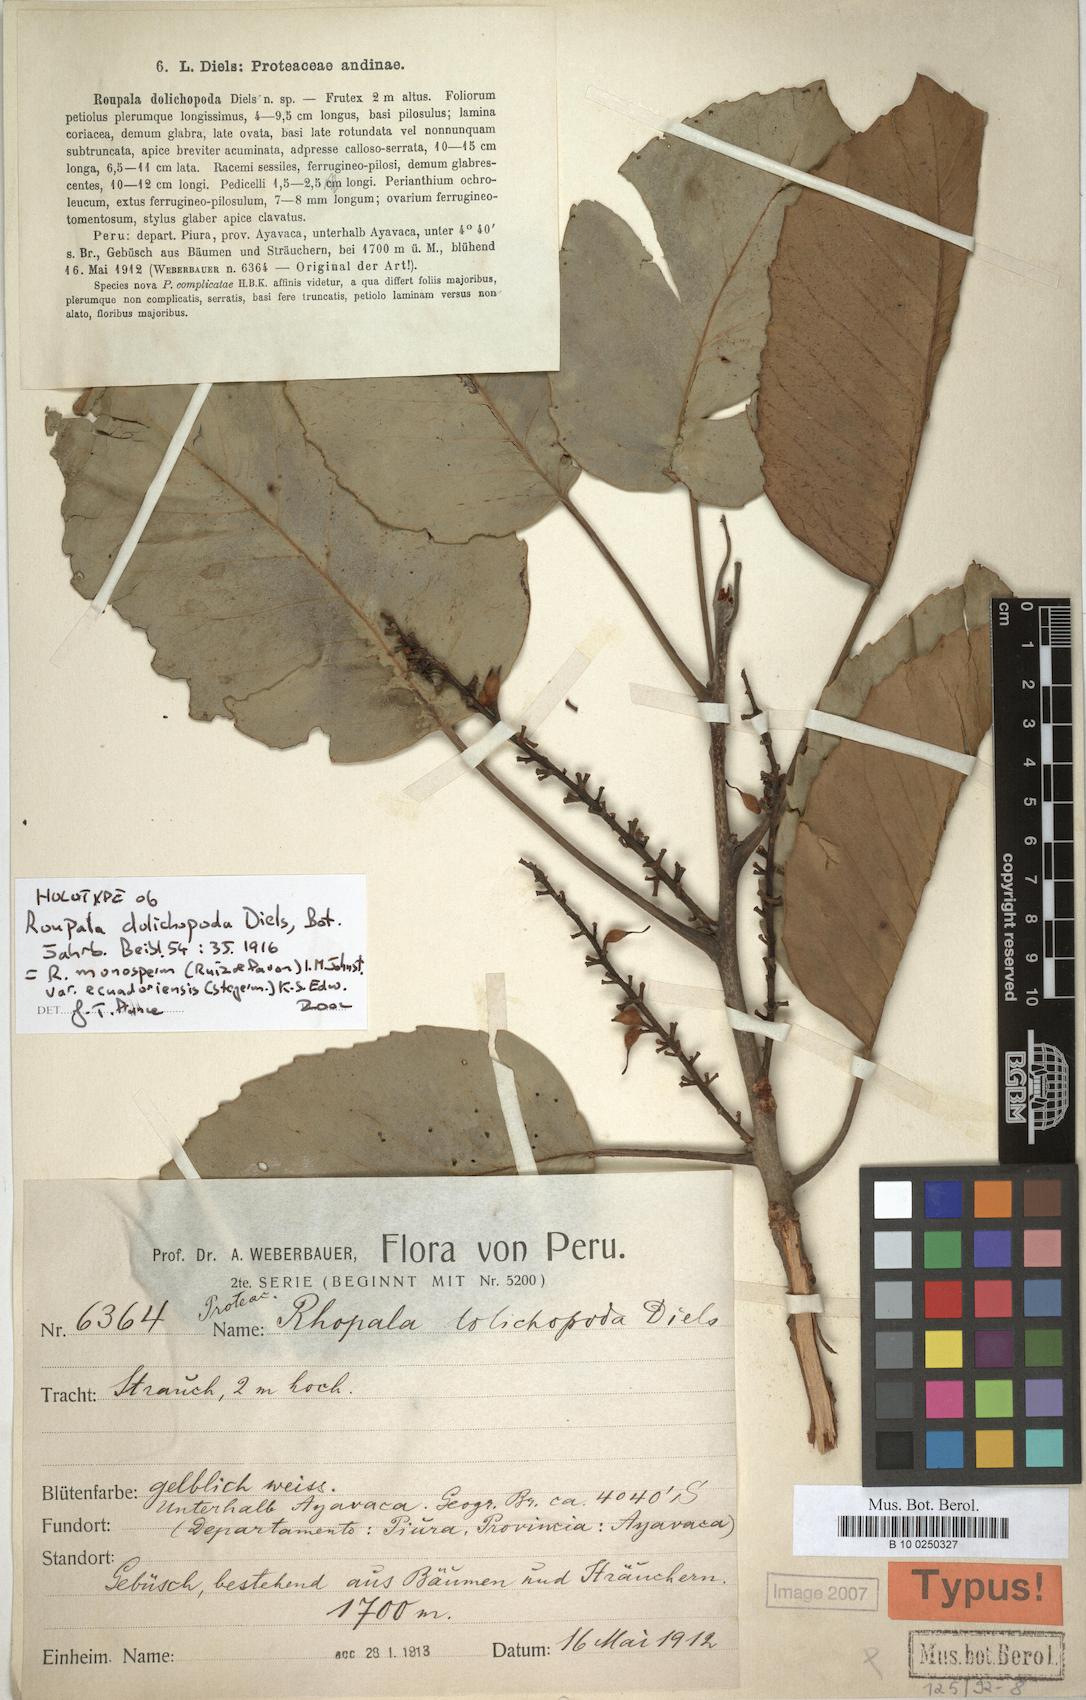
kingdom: Plantae
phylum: Tracheophyta
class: Magnoliopsida
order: Proteales
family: Proteaceae
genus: Roupala
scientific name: Roupala monosperma
